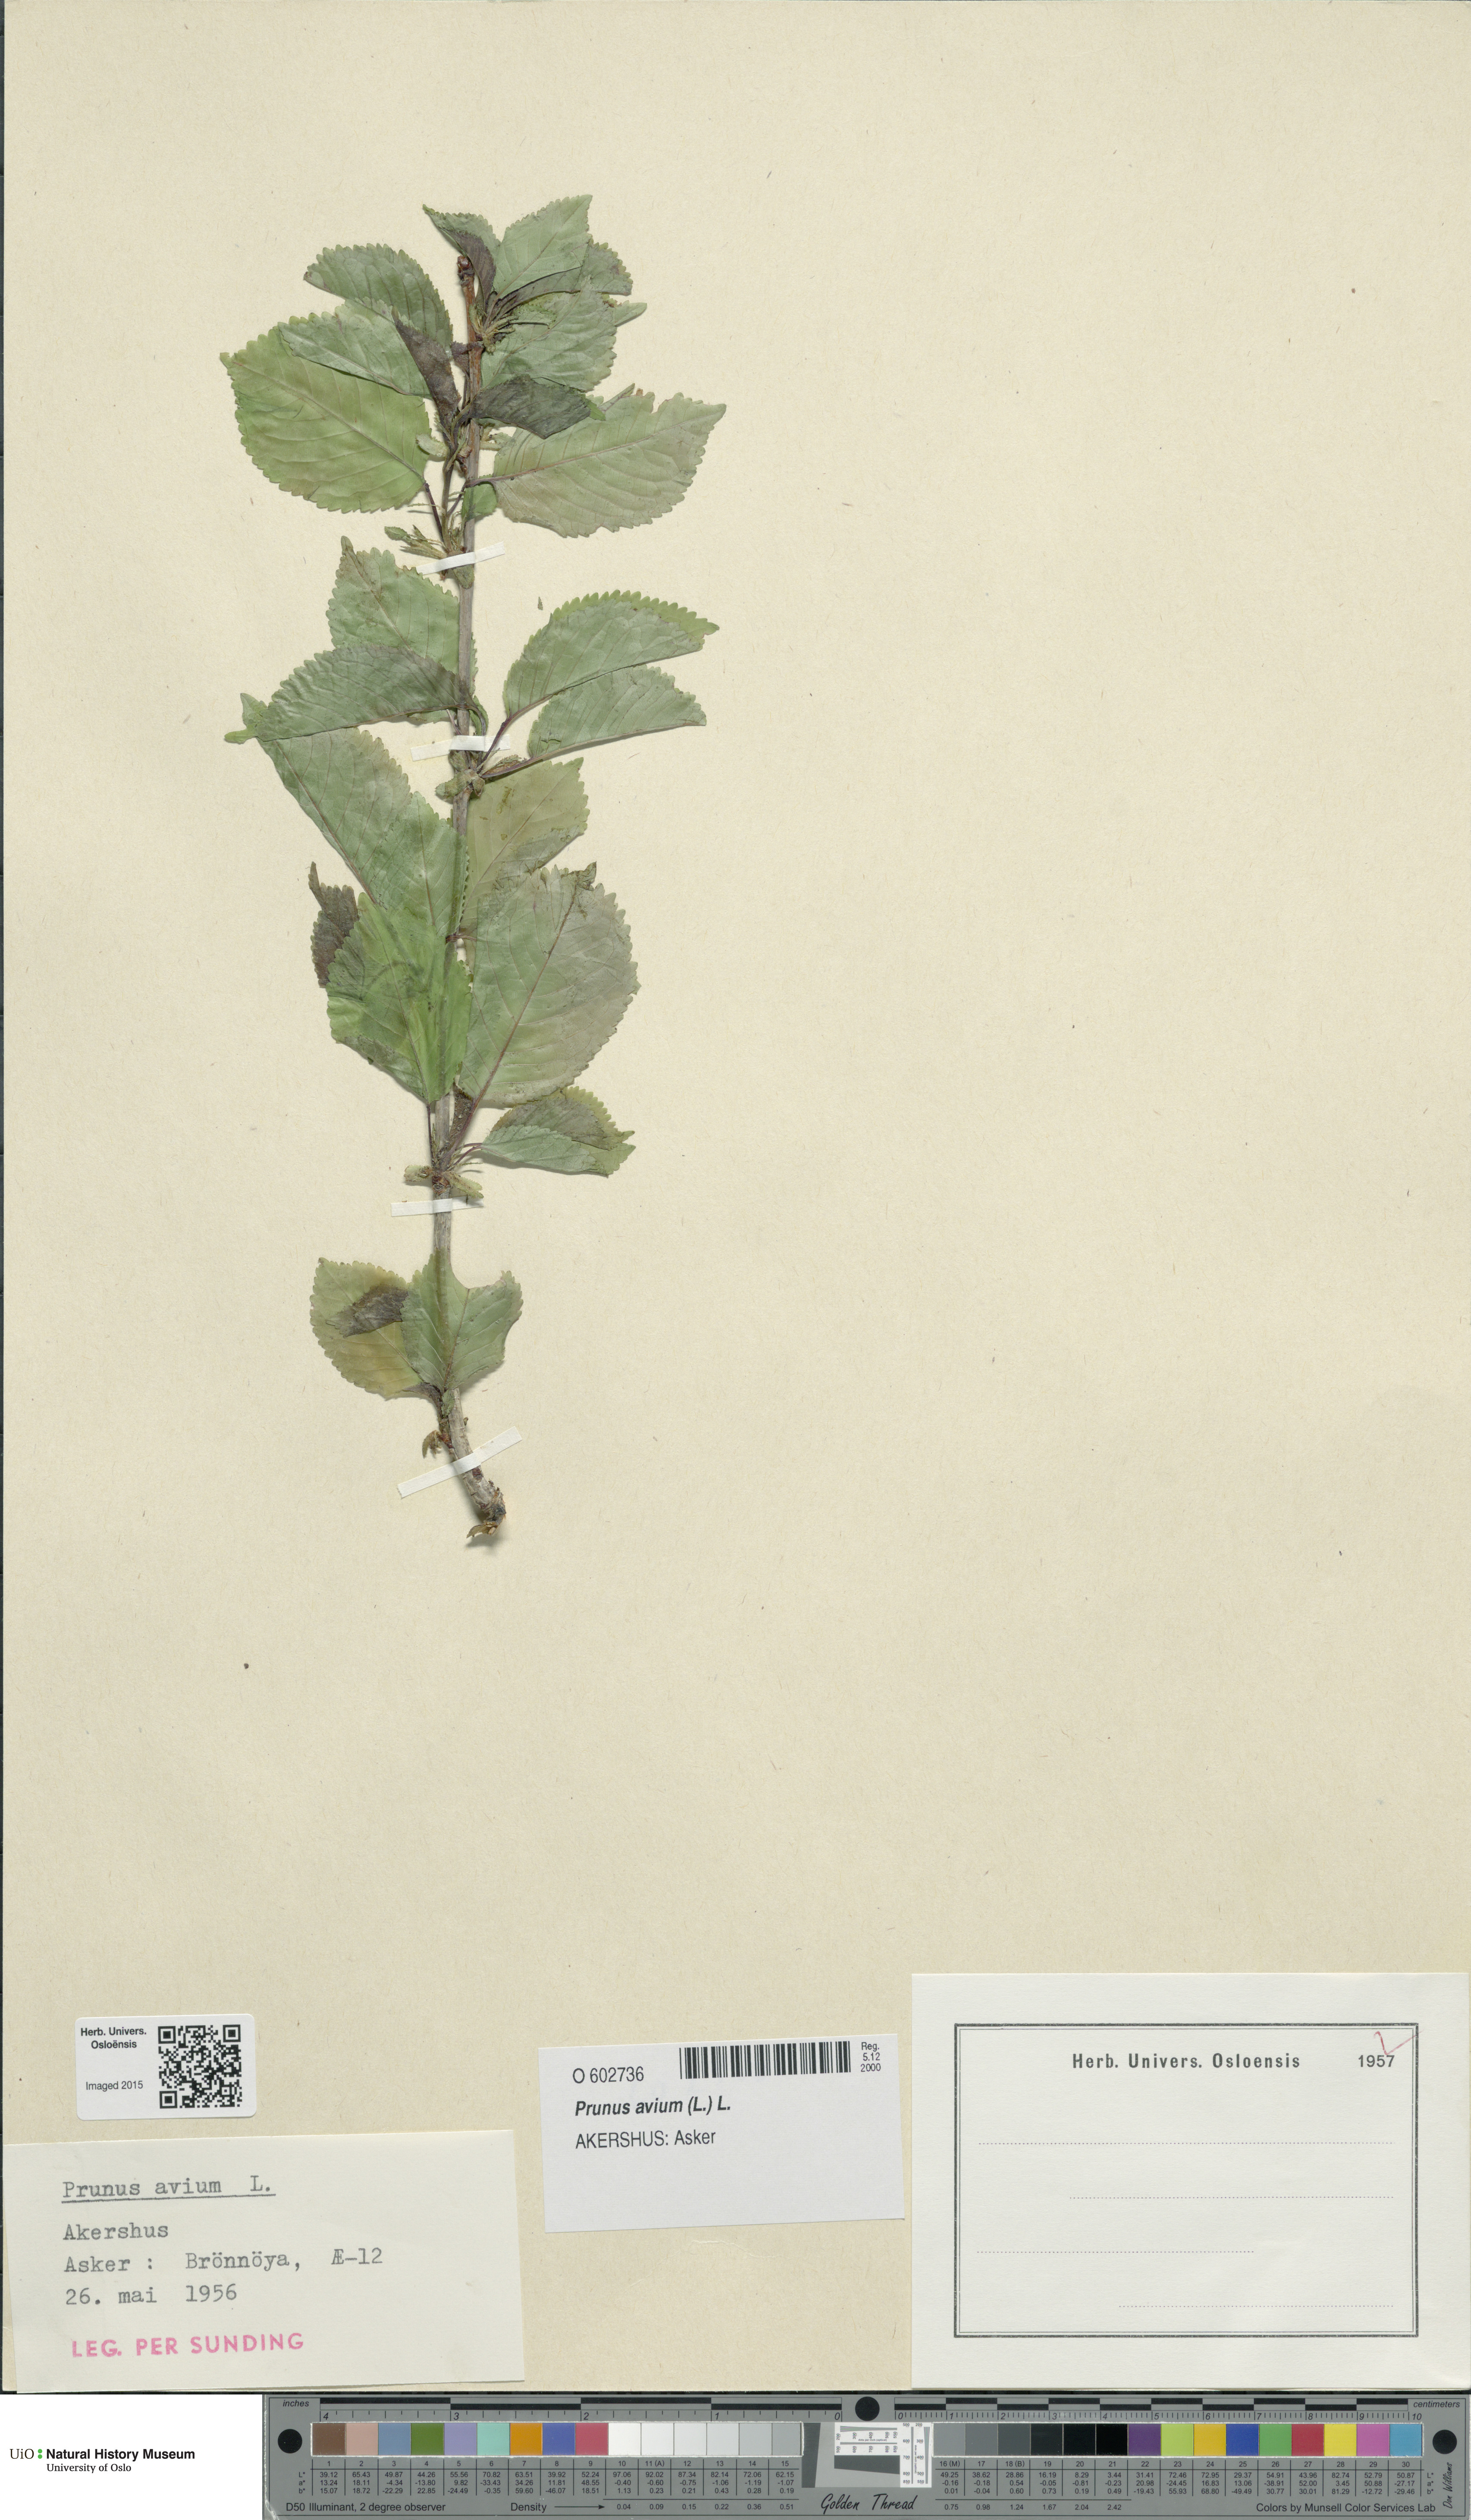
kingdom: Plantae
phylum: Tracheophyta
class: Magnoliopsida
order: Rosales
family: Rosaceae
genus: Prunus
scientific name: Prunus avium
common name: Sweet cherry
